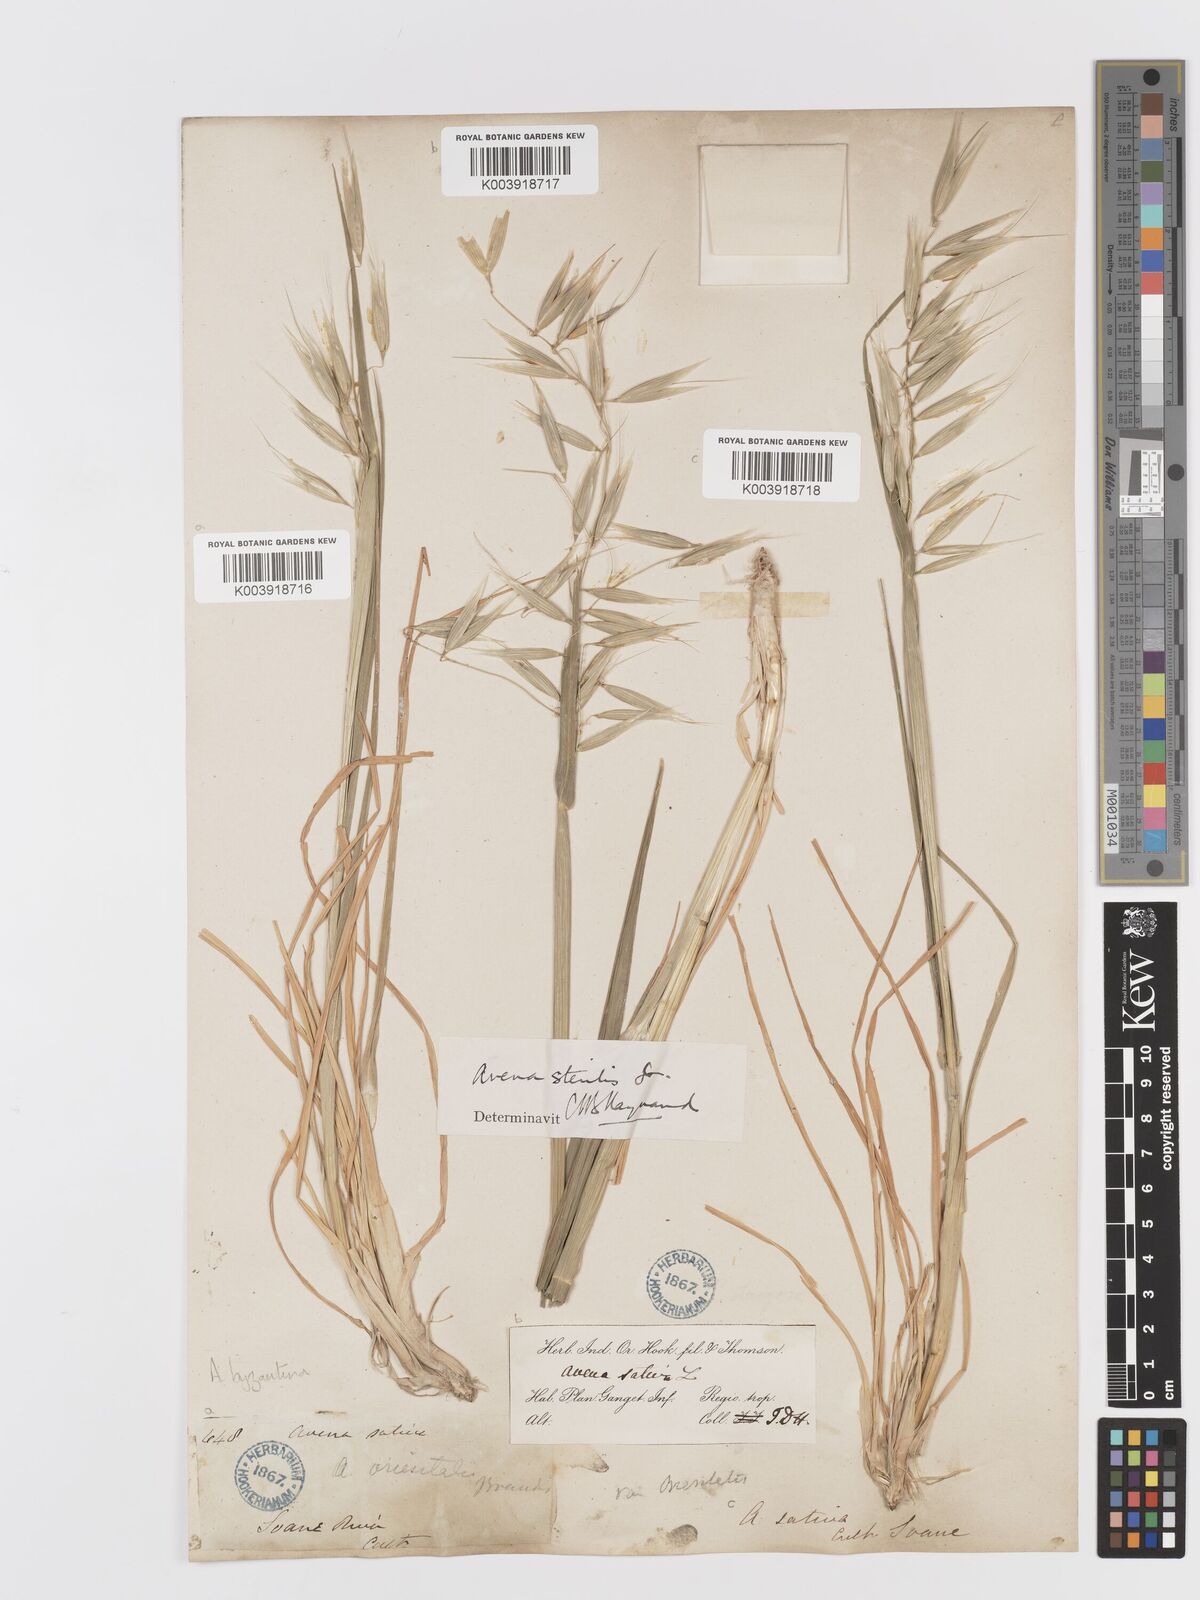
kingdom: Plantae
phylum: Tracheophyta
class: Liliopsida
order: Poales
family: Poaceae
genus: Avena
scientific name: Avena byzantina
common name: Algerian oat
